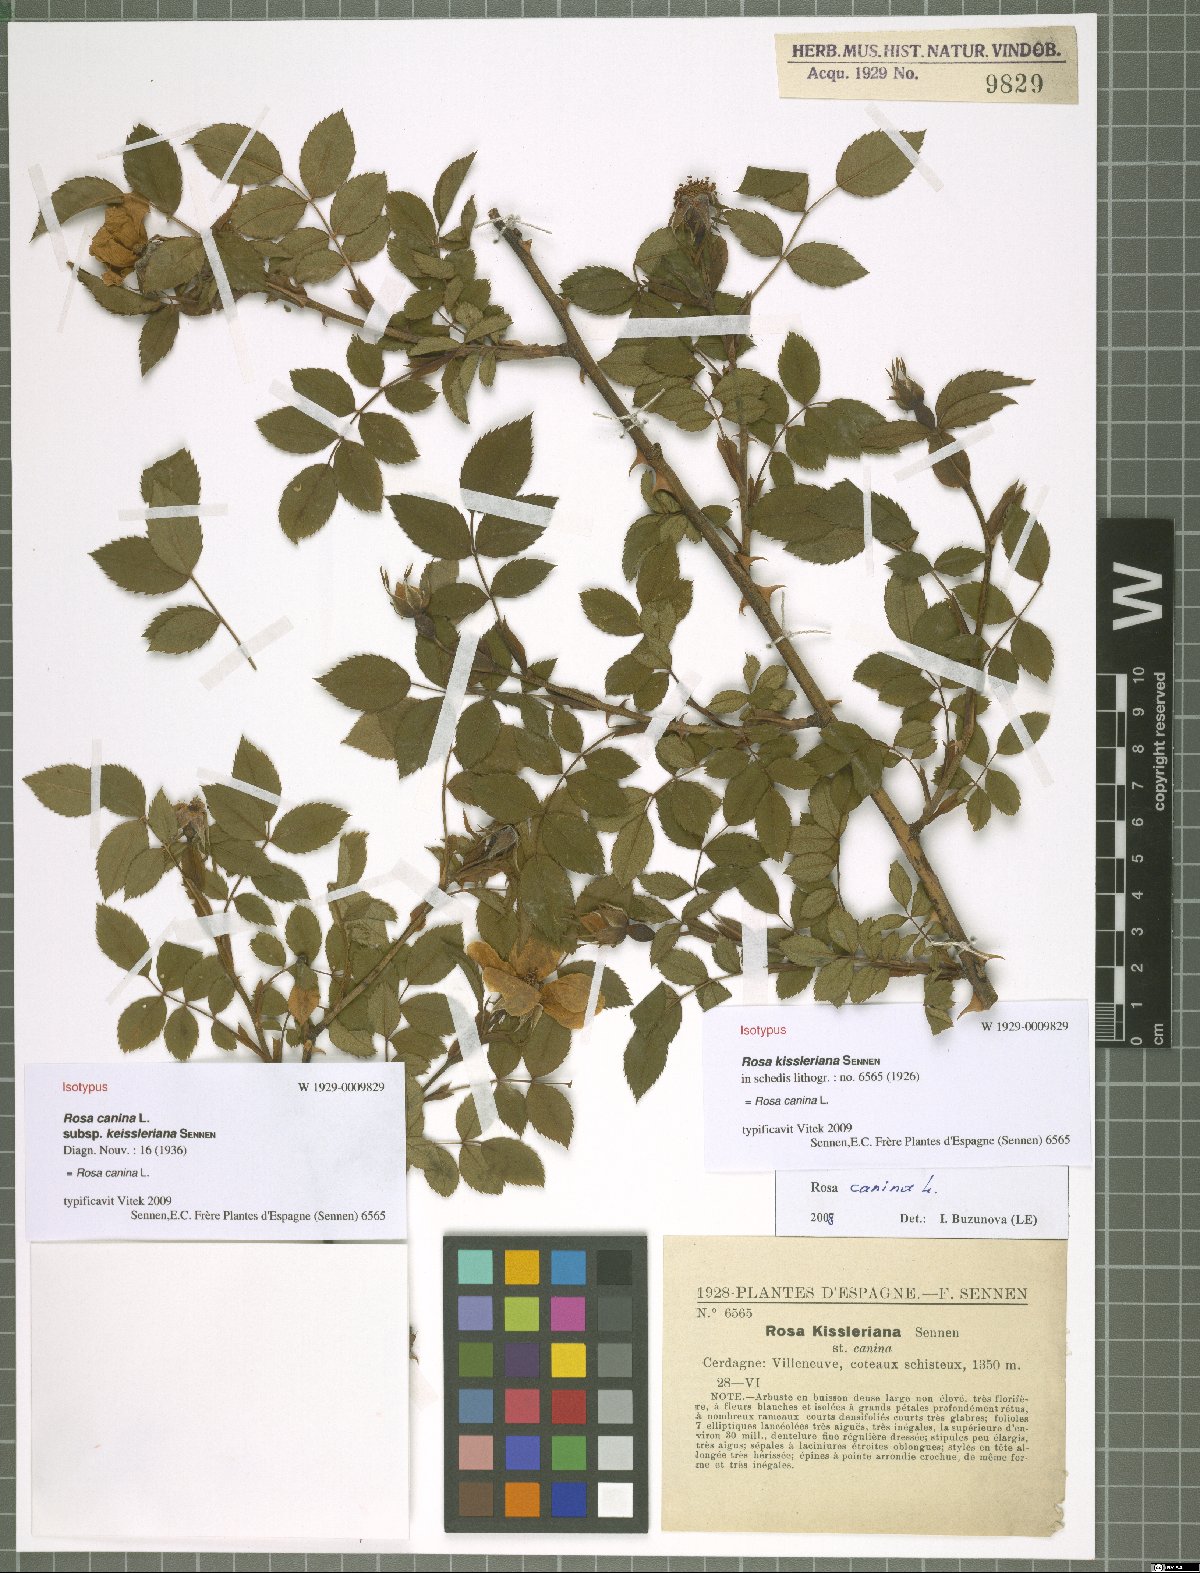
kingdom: Plantae
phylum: Tracheophyta
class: Magnoliopsida
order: Rosales
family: Rosaceae
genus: Rosa
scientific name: Rosa canina
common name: Dog rose
